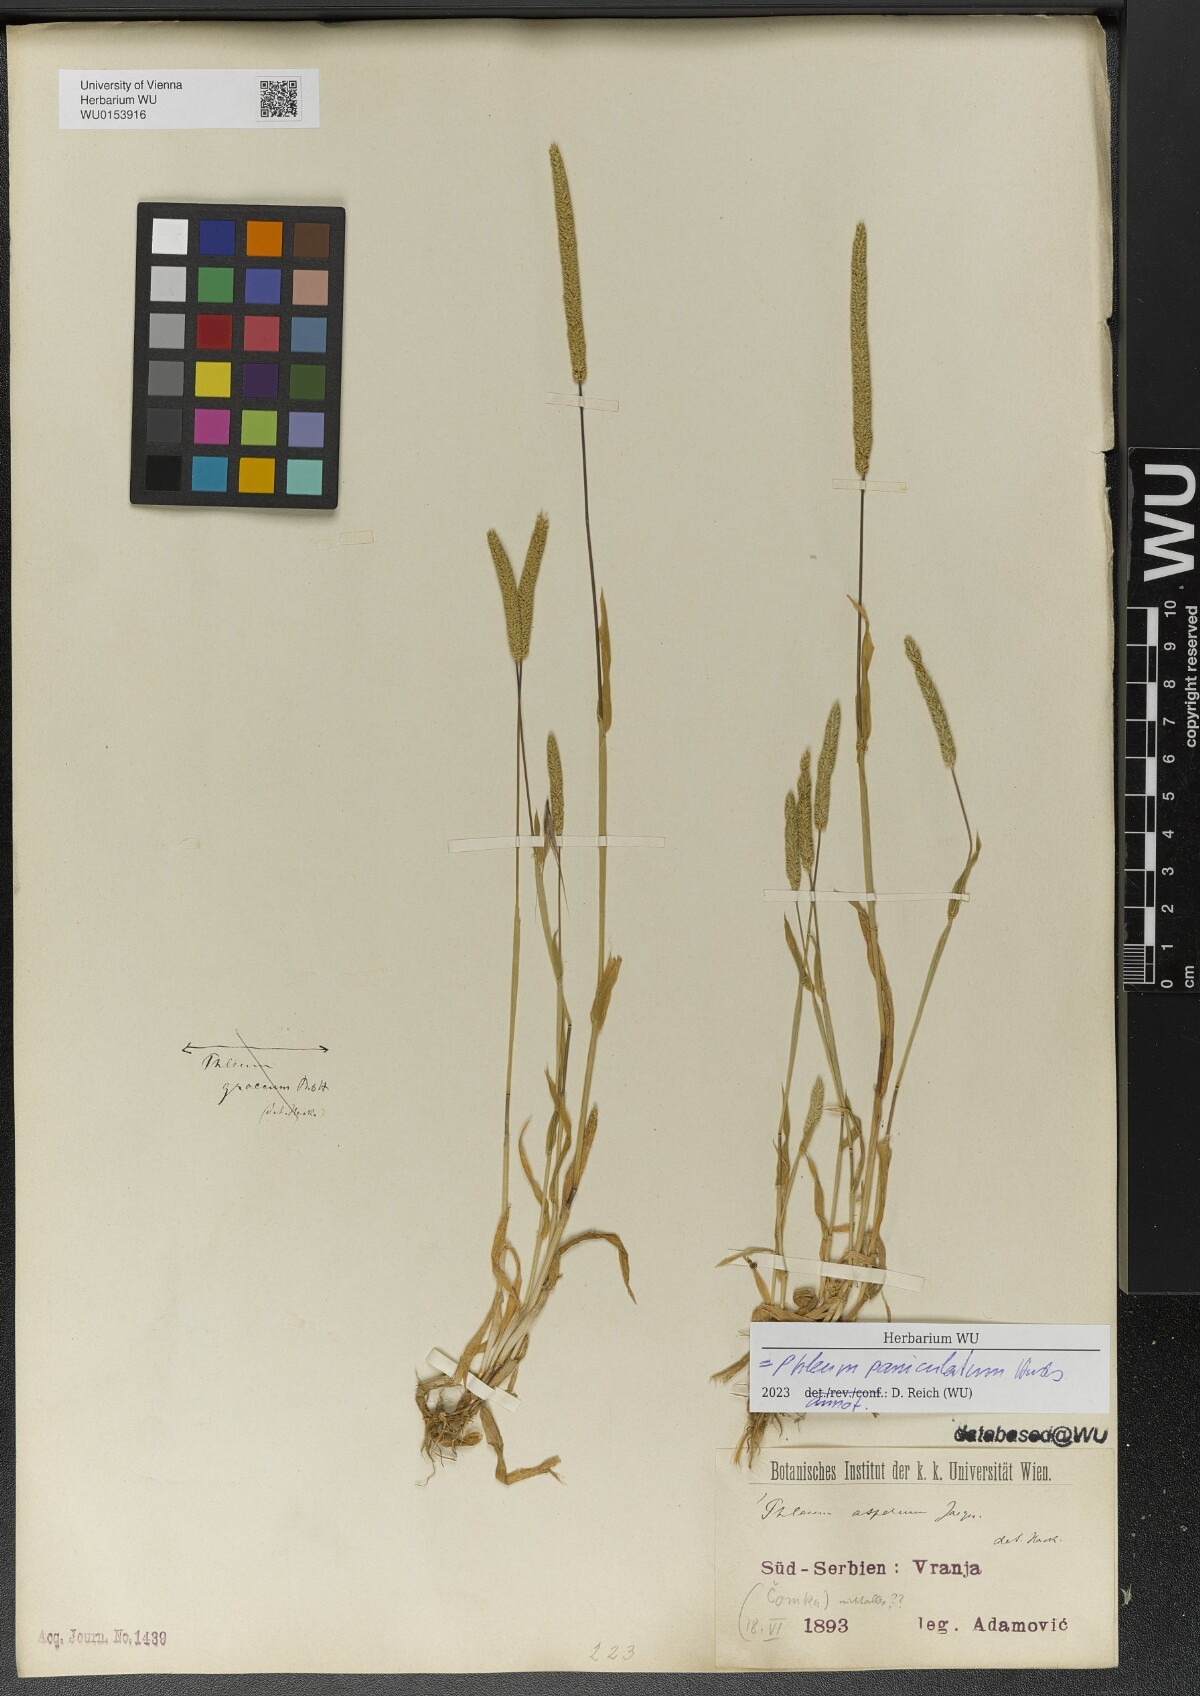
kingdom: Plantae
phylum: Tracheophyta
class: Liliopsida
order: Poales
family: Poaceae
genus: Phleum
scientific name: Phleum paniculatum
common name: British timothy
